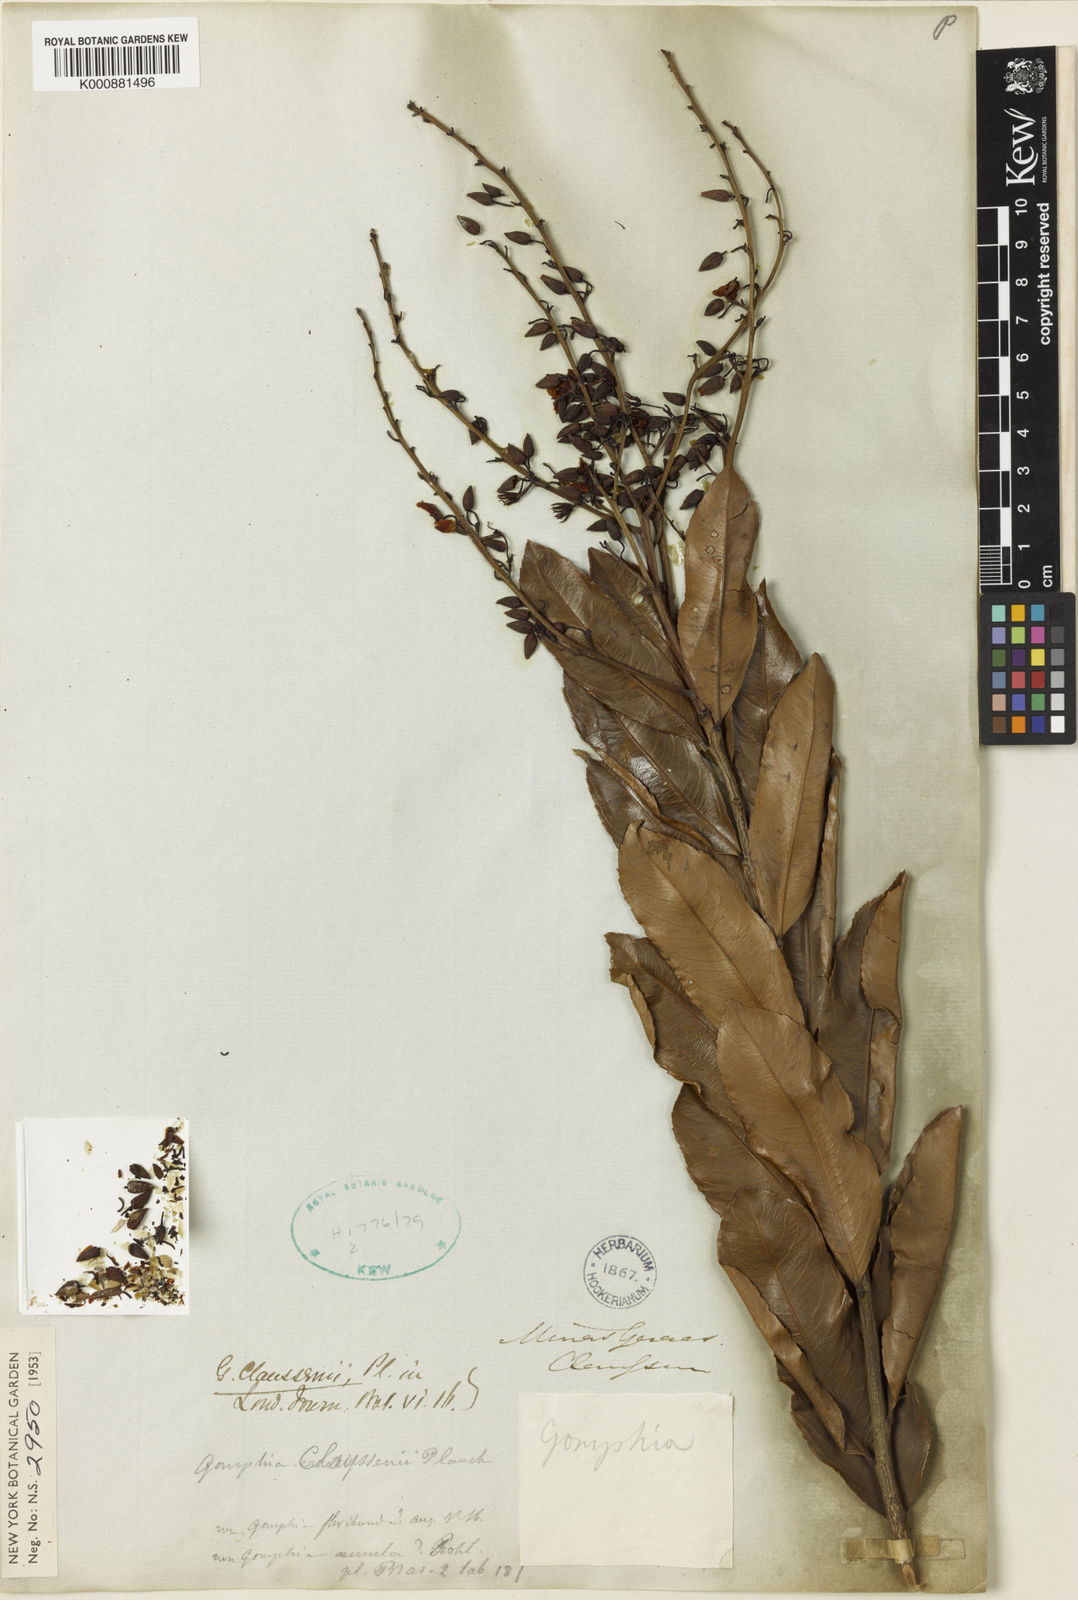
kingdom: Plantae
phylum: Tracheophyta
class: Magnoliopsida
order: Malpighiales
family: Ochnaceae
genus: Ouratea
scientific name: Ouratea floribunda
